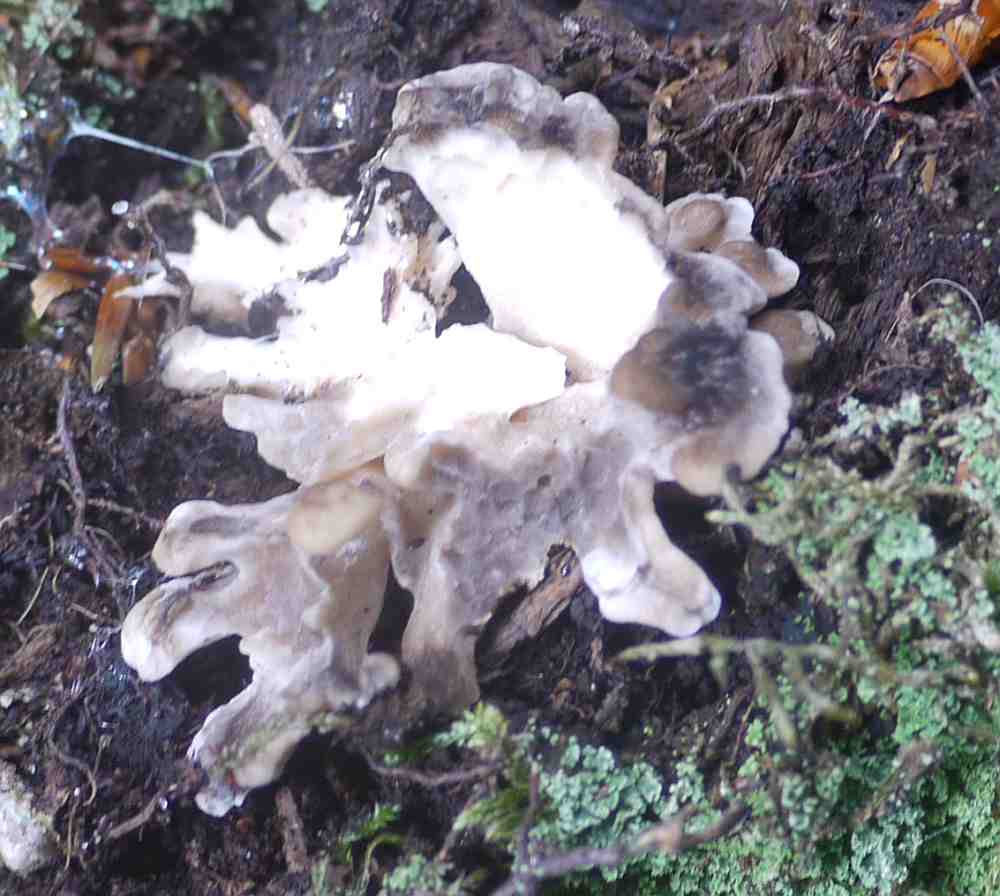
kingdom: Fungi
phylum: Basidiomycota
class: Agaricomycetes
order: Polyporales
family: Grifolaceae
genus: Grifola
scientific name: Grifola frondosa
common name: tueporesvamp
